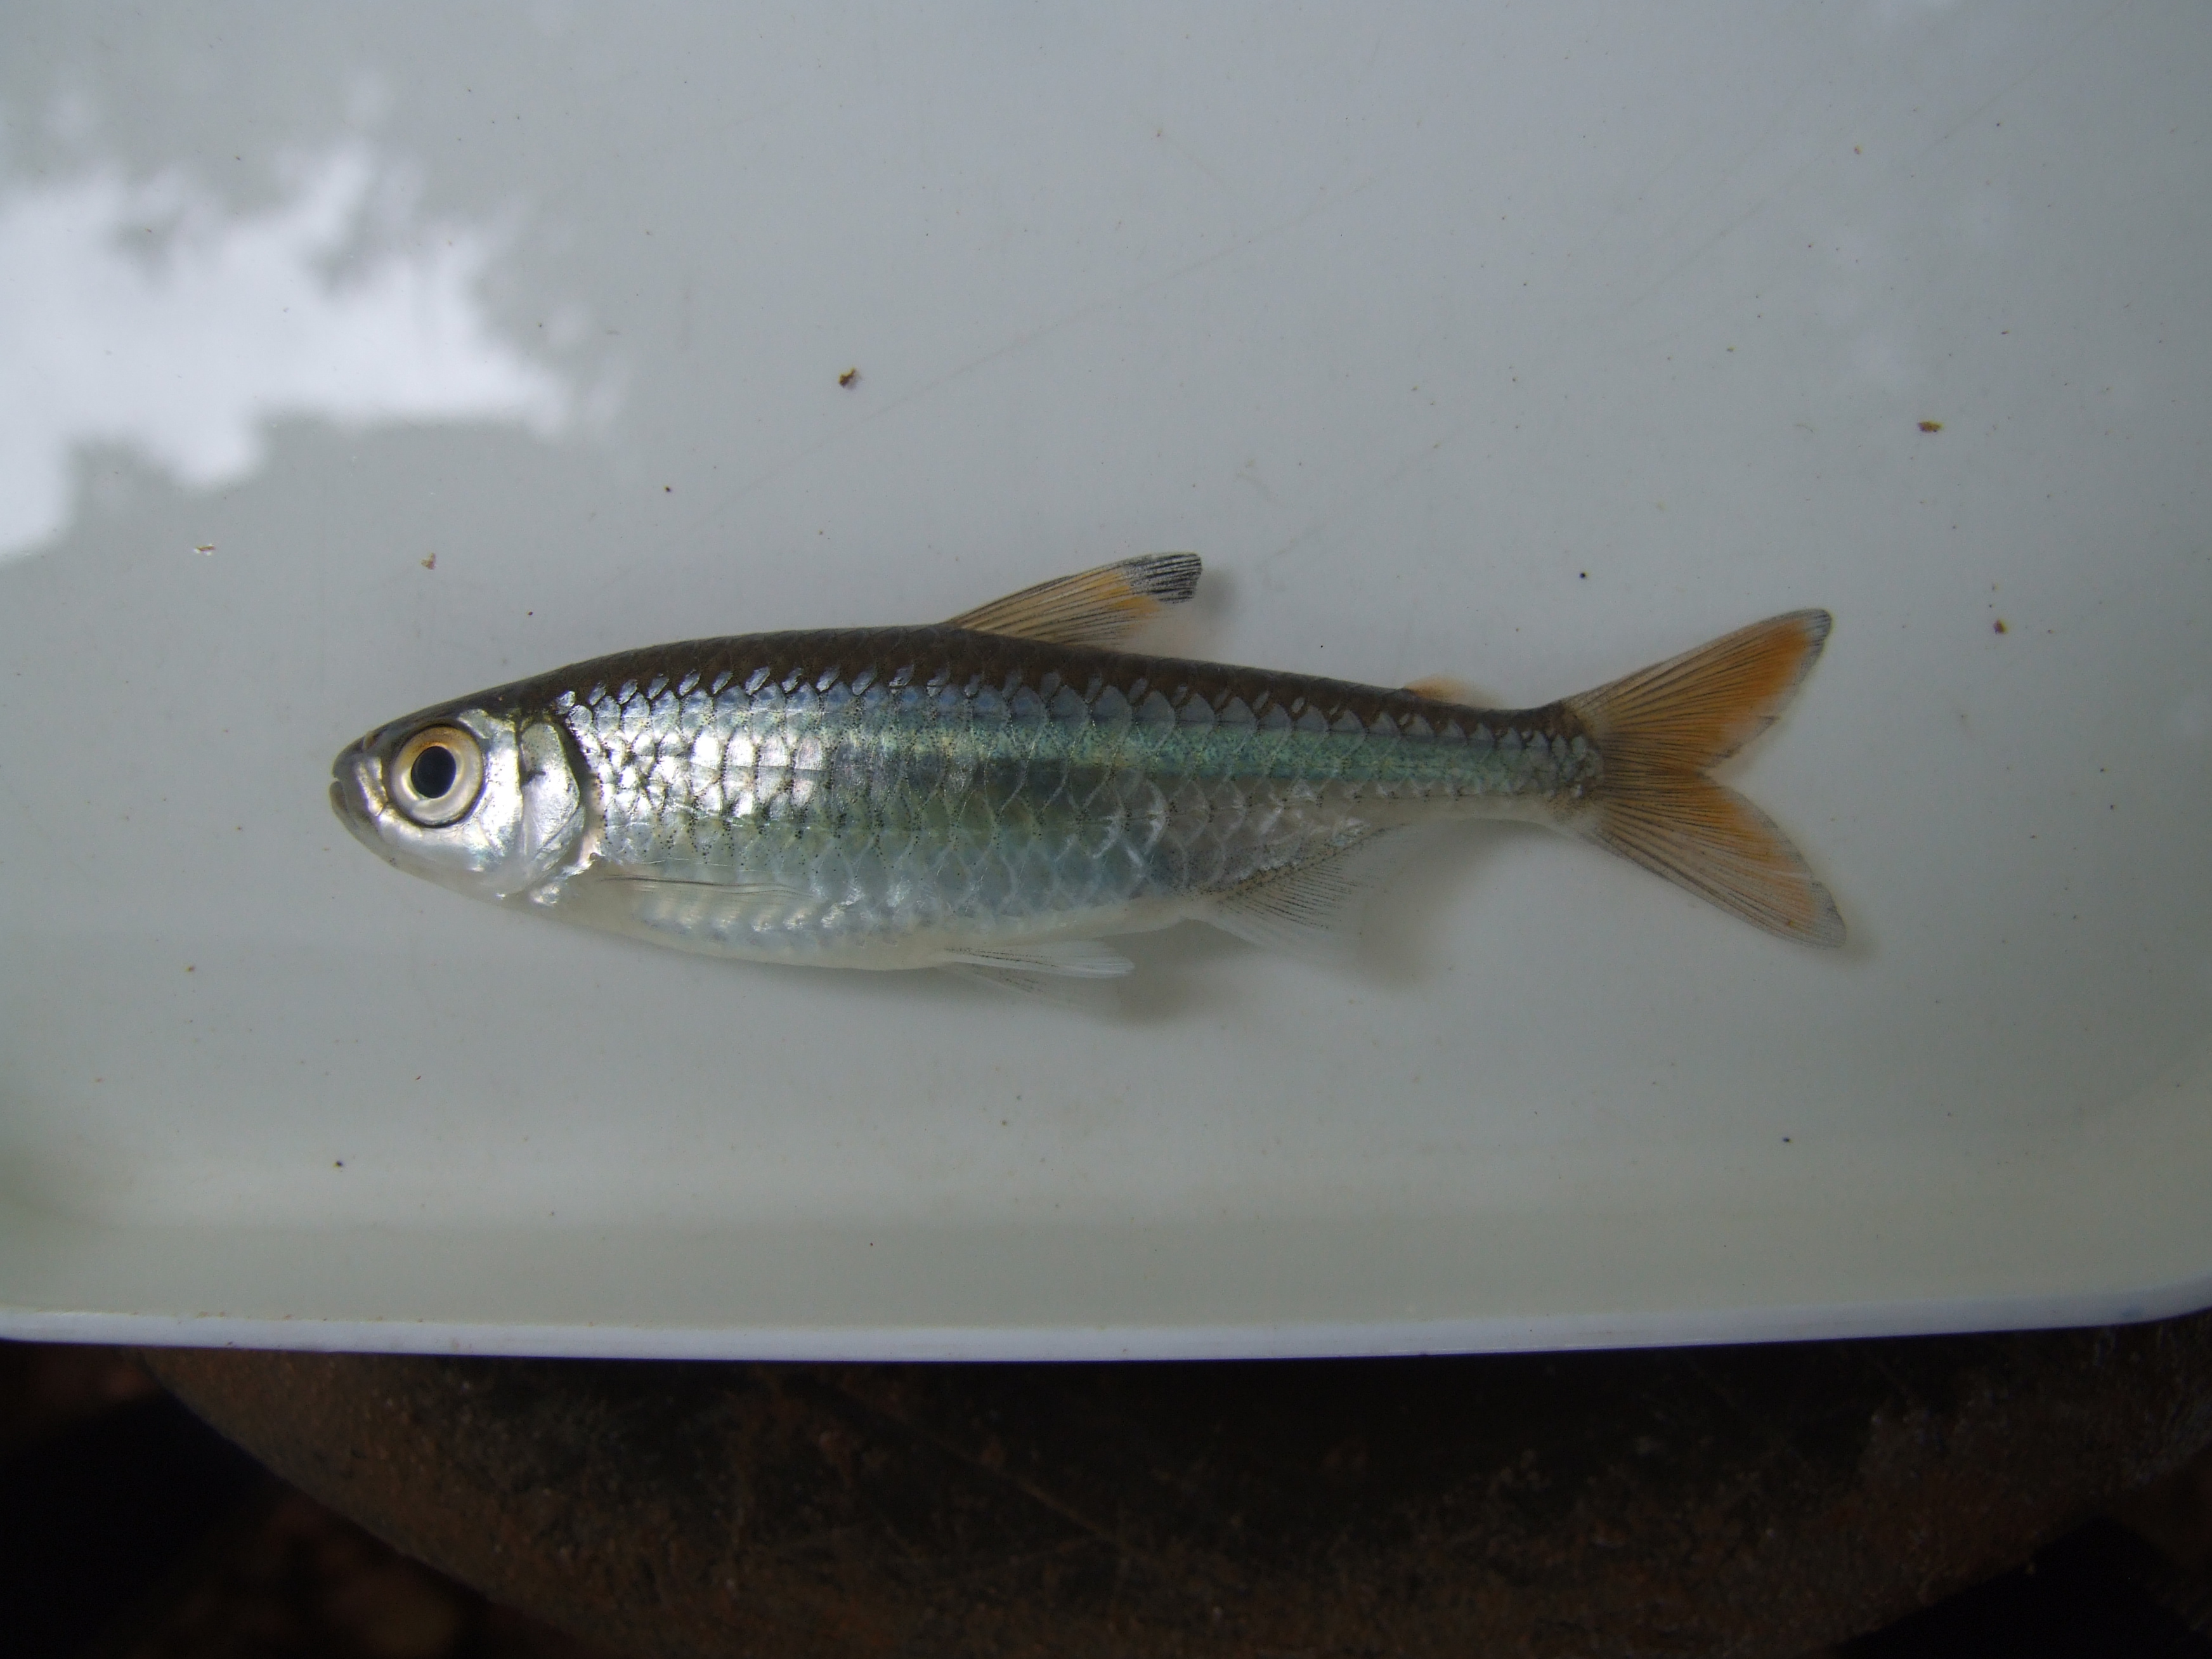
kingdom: Animalia
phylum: Chordata
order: Characiformes
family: Alestidae
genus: Micralestes
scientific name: Micralestes acutidens
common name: Silver robber
